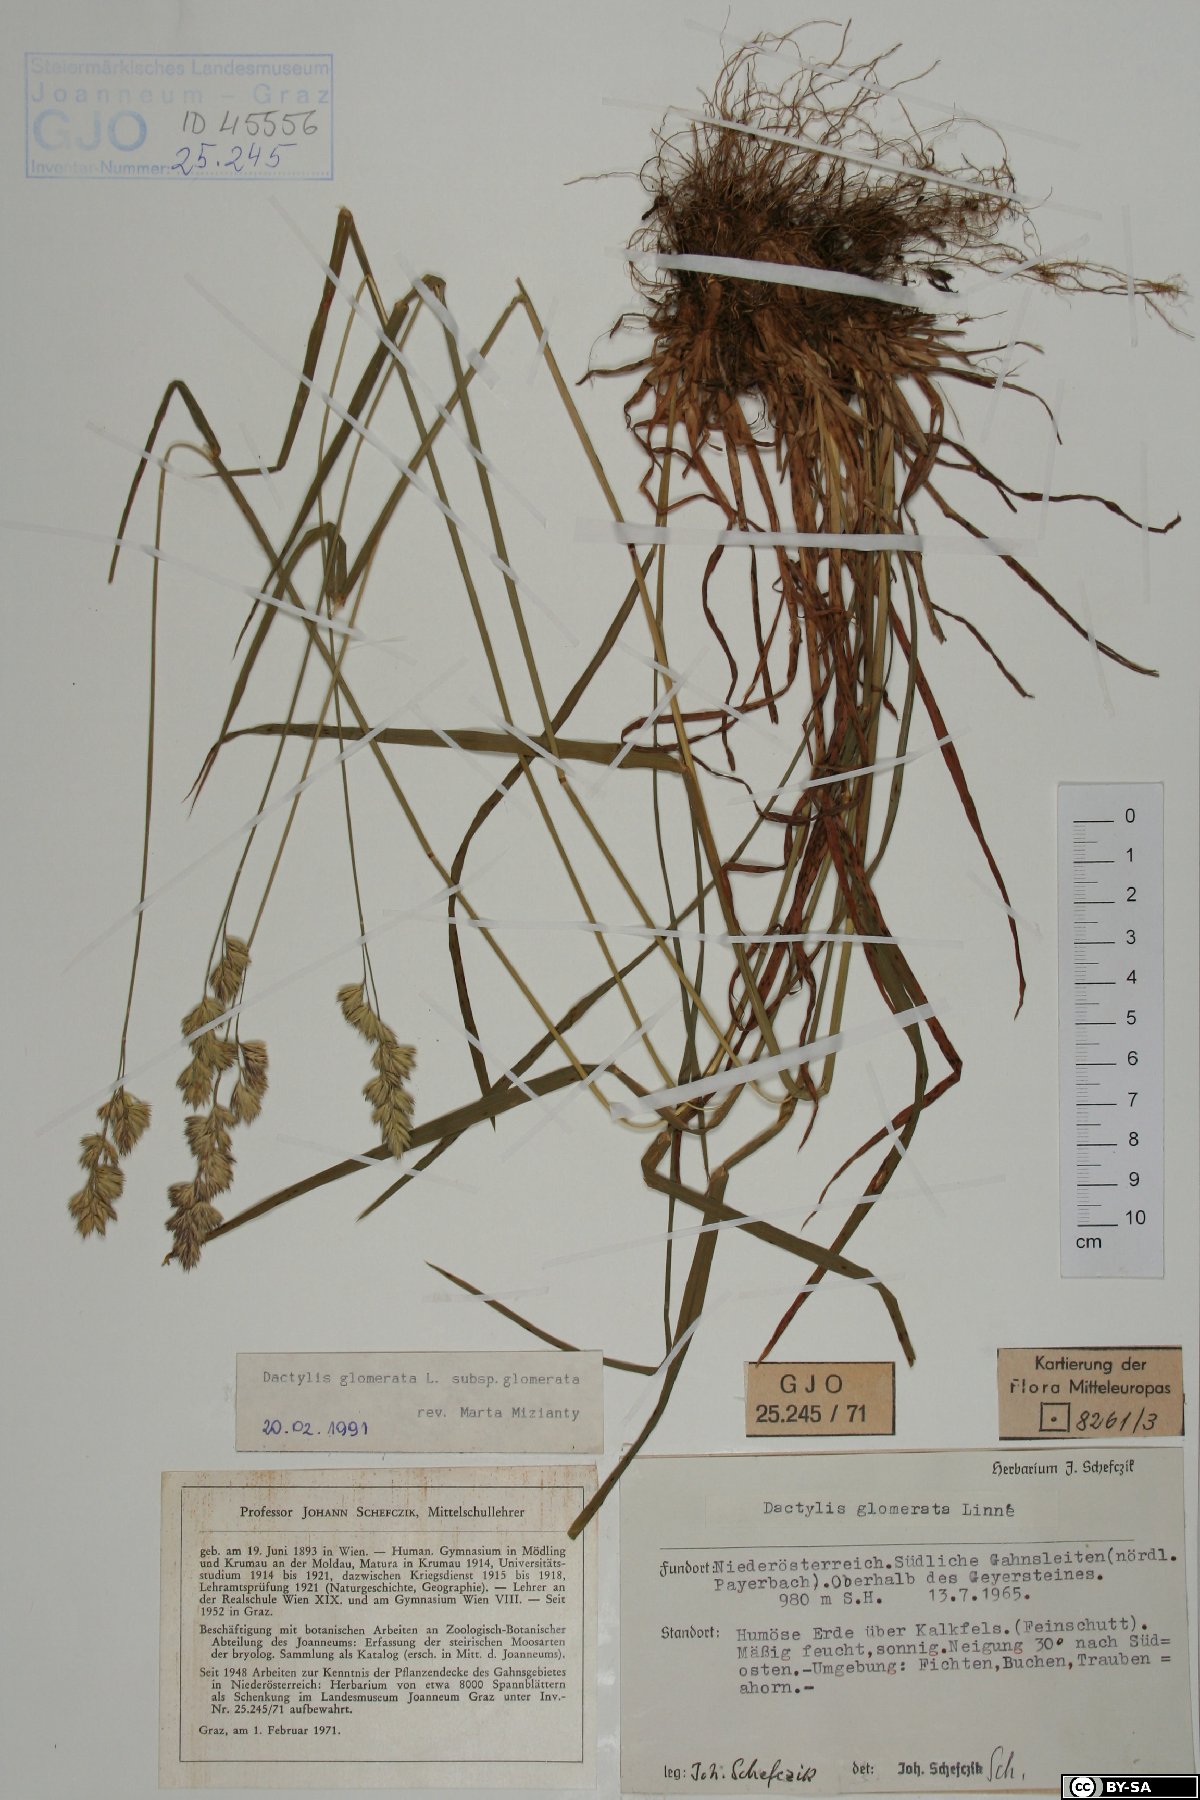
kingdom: Plantae
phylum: Tracheophyta
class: Liliopsida
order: Poales
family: Poaceae
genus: Dactylis
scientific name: Dactylis glomerata
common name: Orchardgrass
